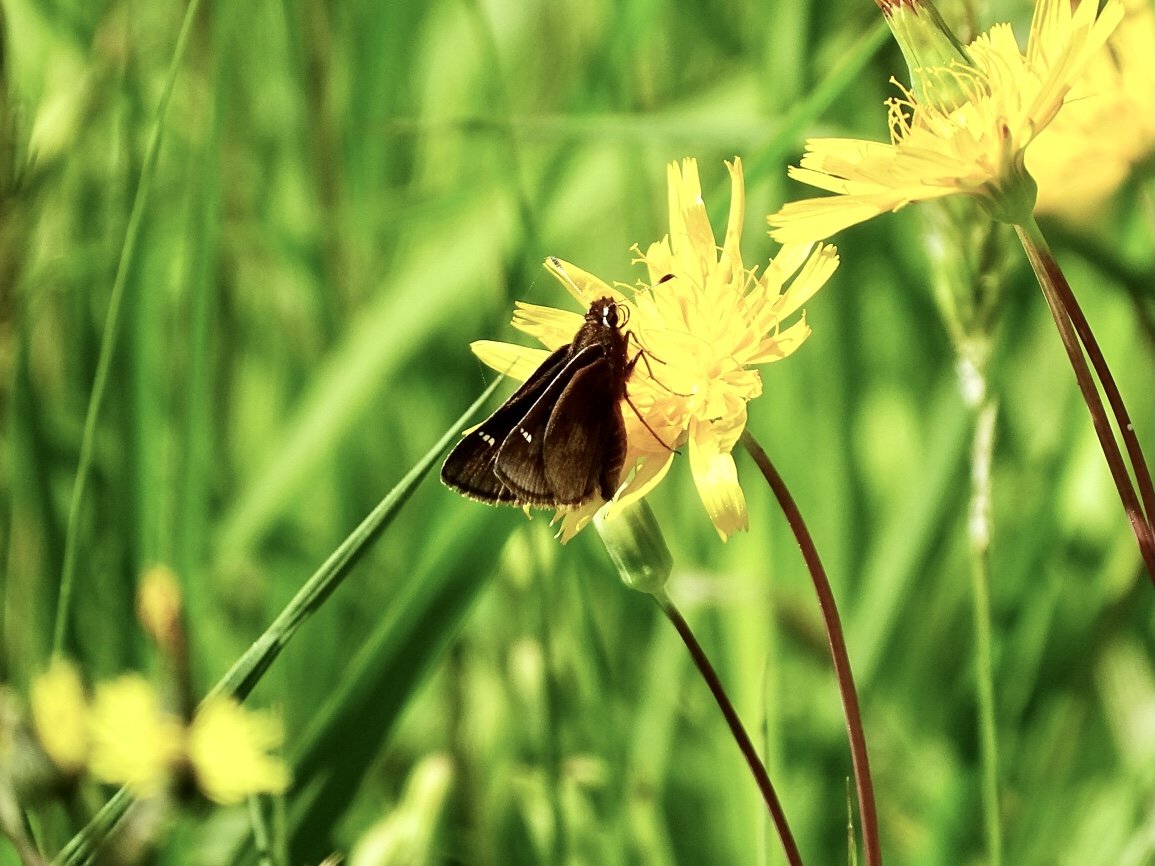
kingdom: Animalia
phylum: Arthropoda
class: Insecta
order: Lepidoptera
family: Hesperiidae
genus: Atrytonopsis
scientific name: Atrytonopsis hianna
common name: Dusted Skipper
